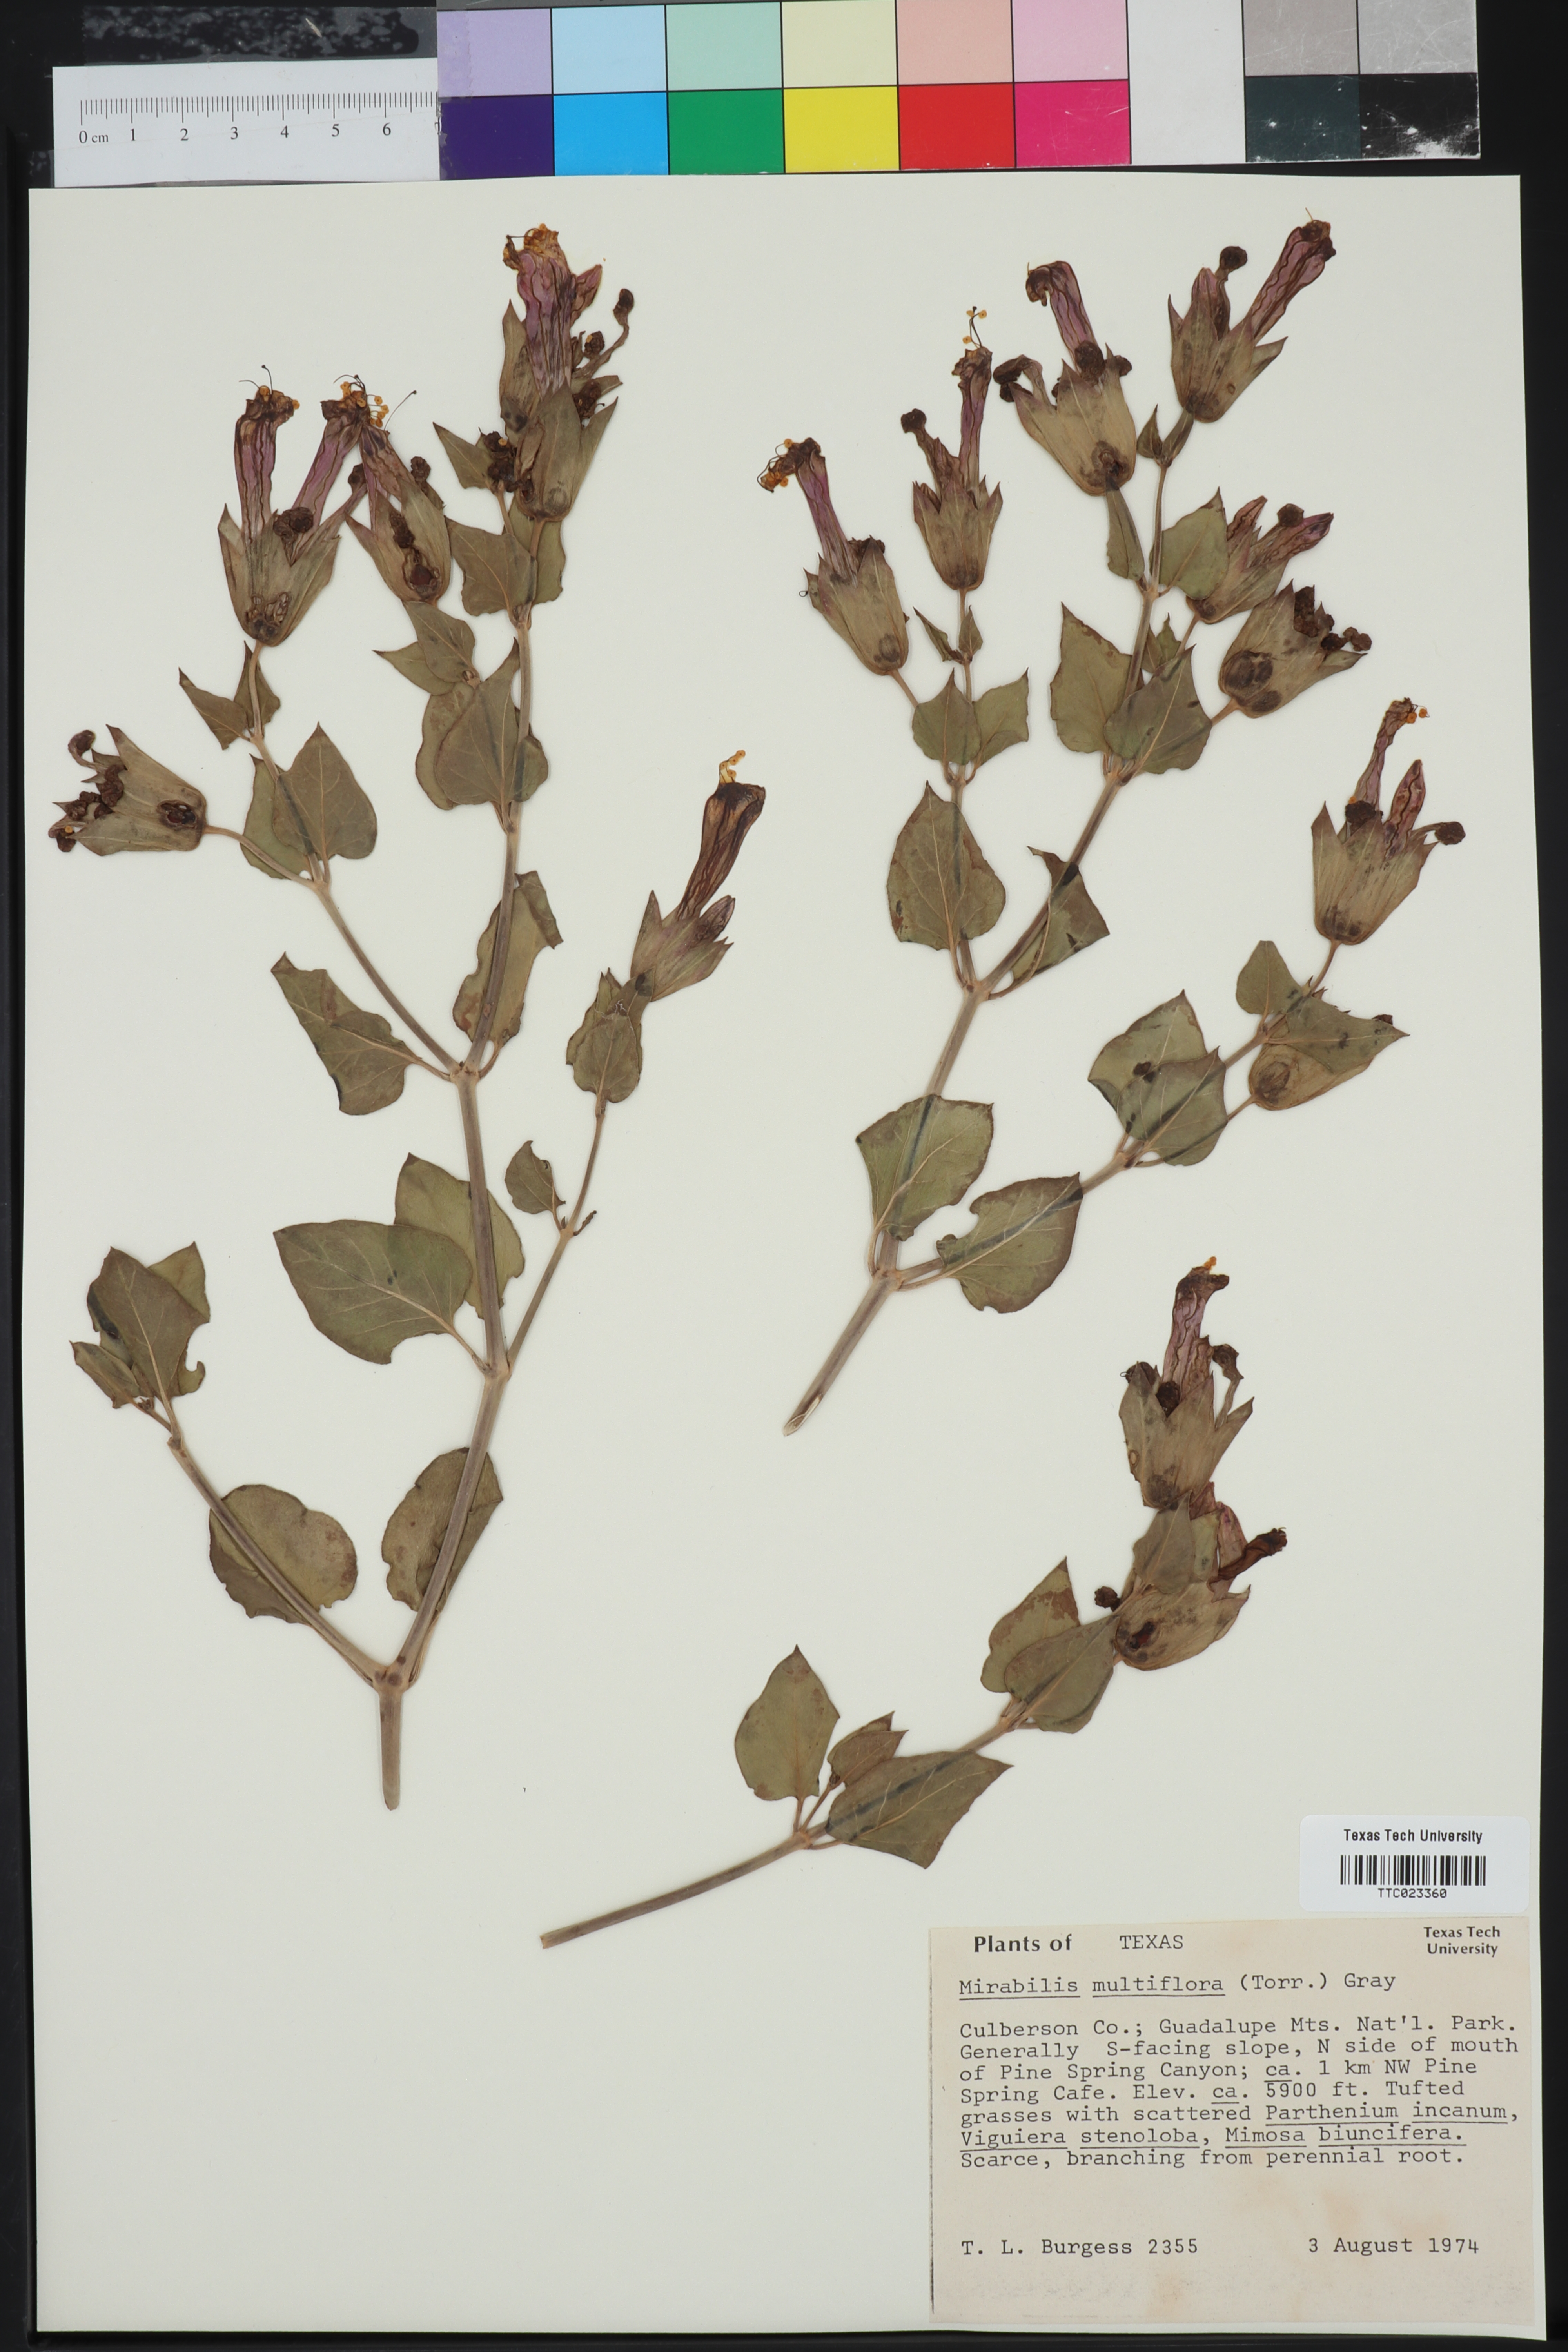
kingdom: Plantae
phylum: Tracheophyta
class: Magnoliopsida
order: Caryophyllales
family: Nyctaginaceae
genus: Mirabilis
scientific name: Mirabilis multiflora
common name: Froebel's four-o'clock
